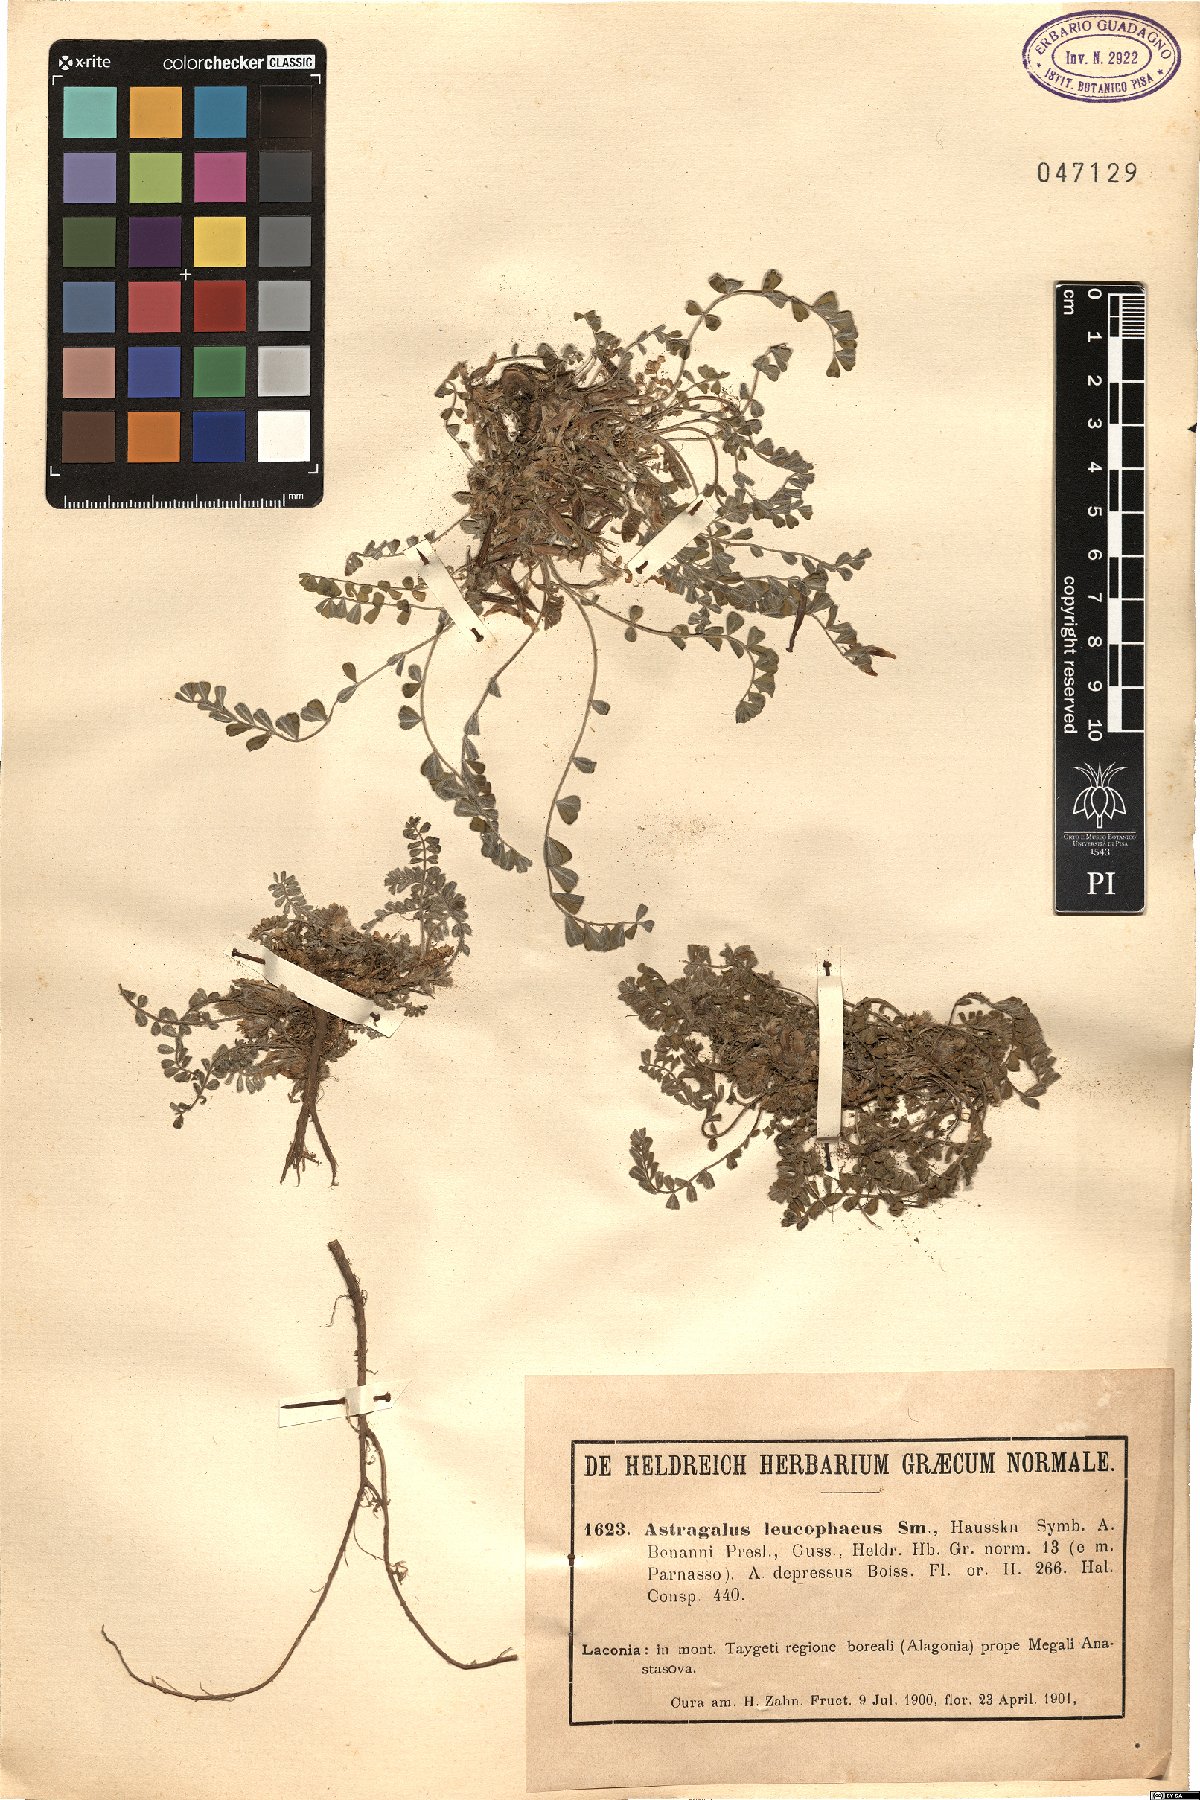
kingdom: Plantae
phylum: Tracheophyta
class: Magnoliopsida
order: Fabales
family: Fabaceae
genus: Astragalus
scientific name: Astragalus depressus
